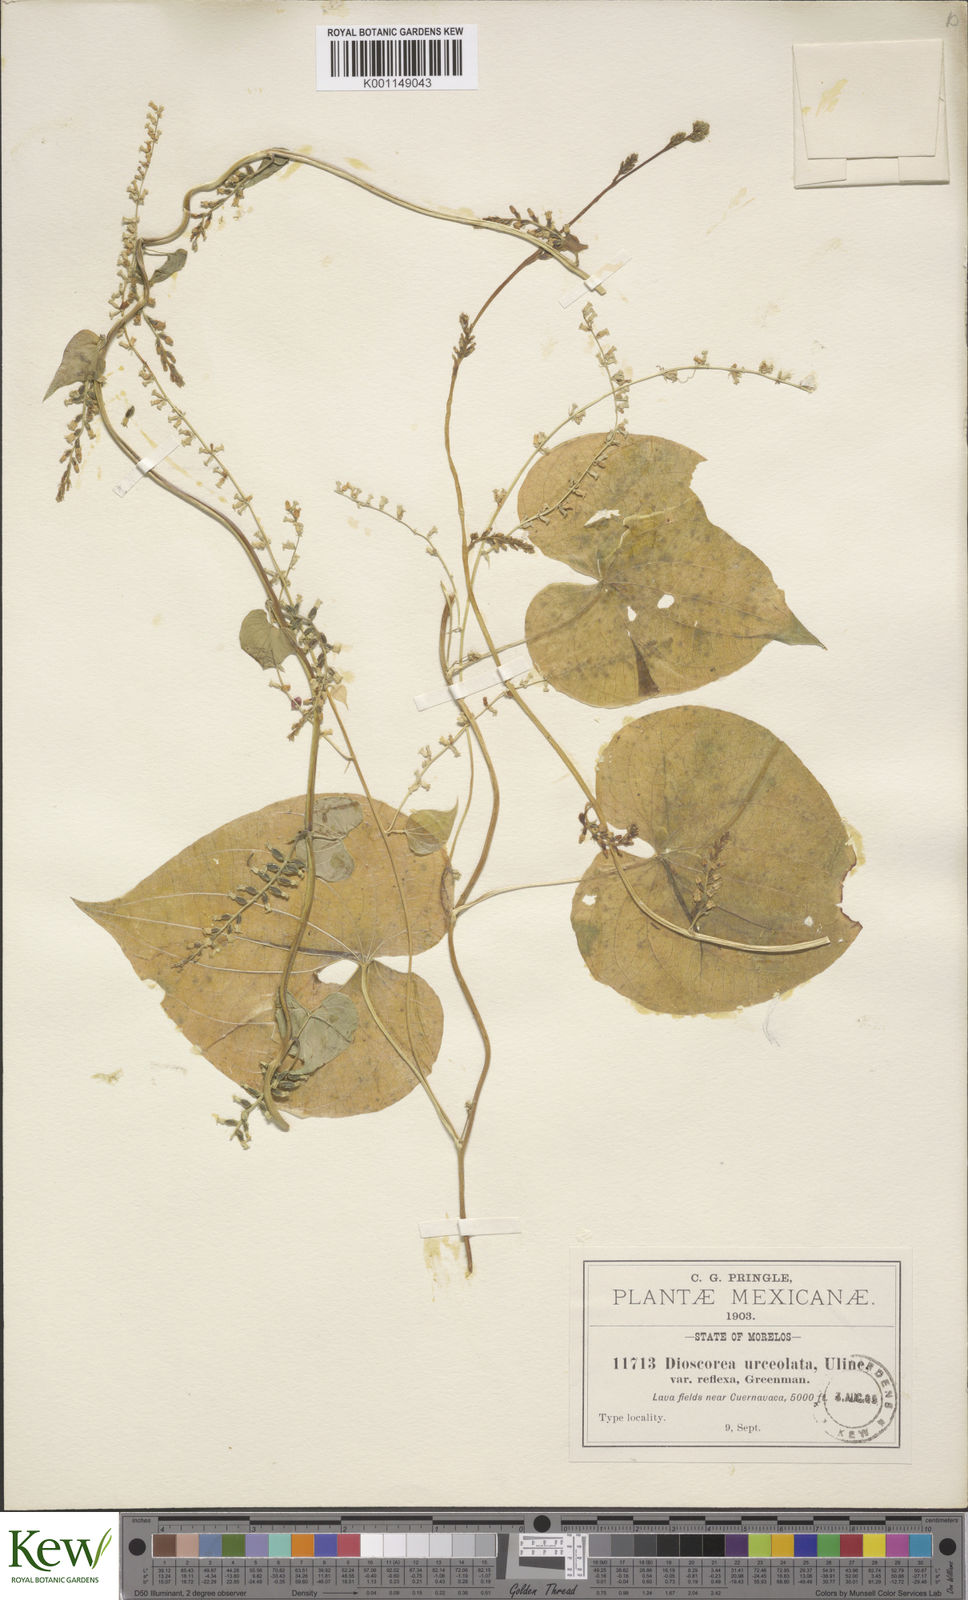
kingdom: Plantae
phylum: Tracheophyta
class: Liliopsida
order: Dioscoreales
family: Dioscoreaceae
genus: Dioscorea
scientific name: Dioscorea urceolata
